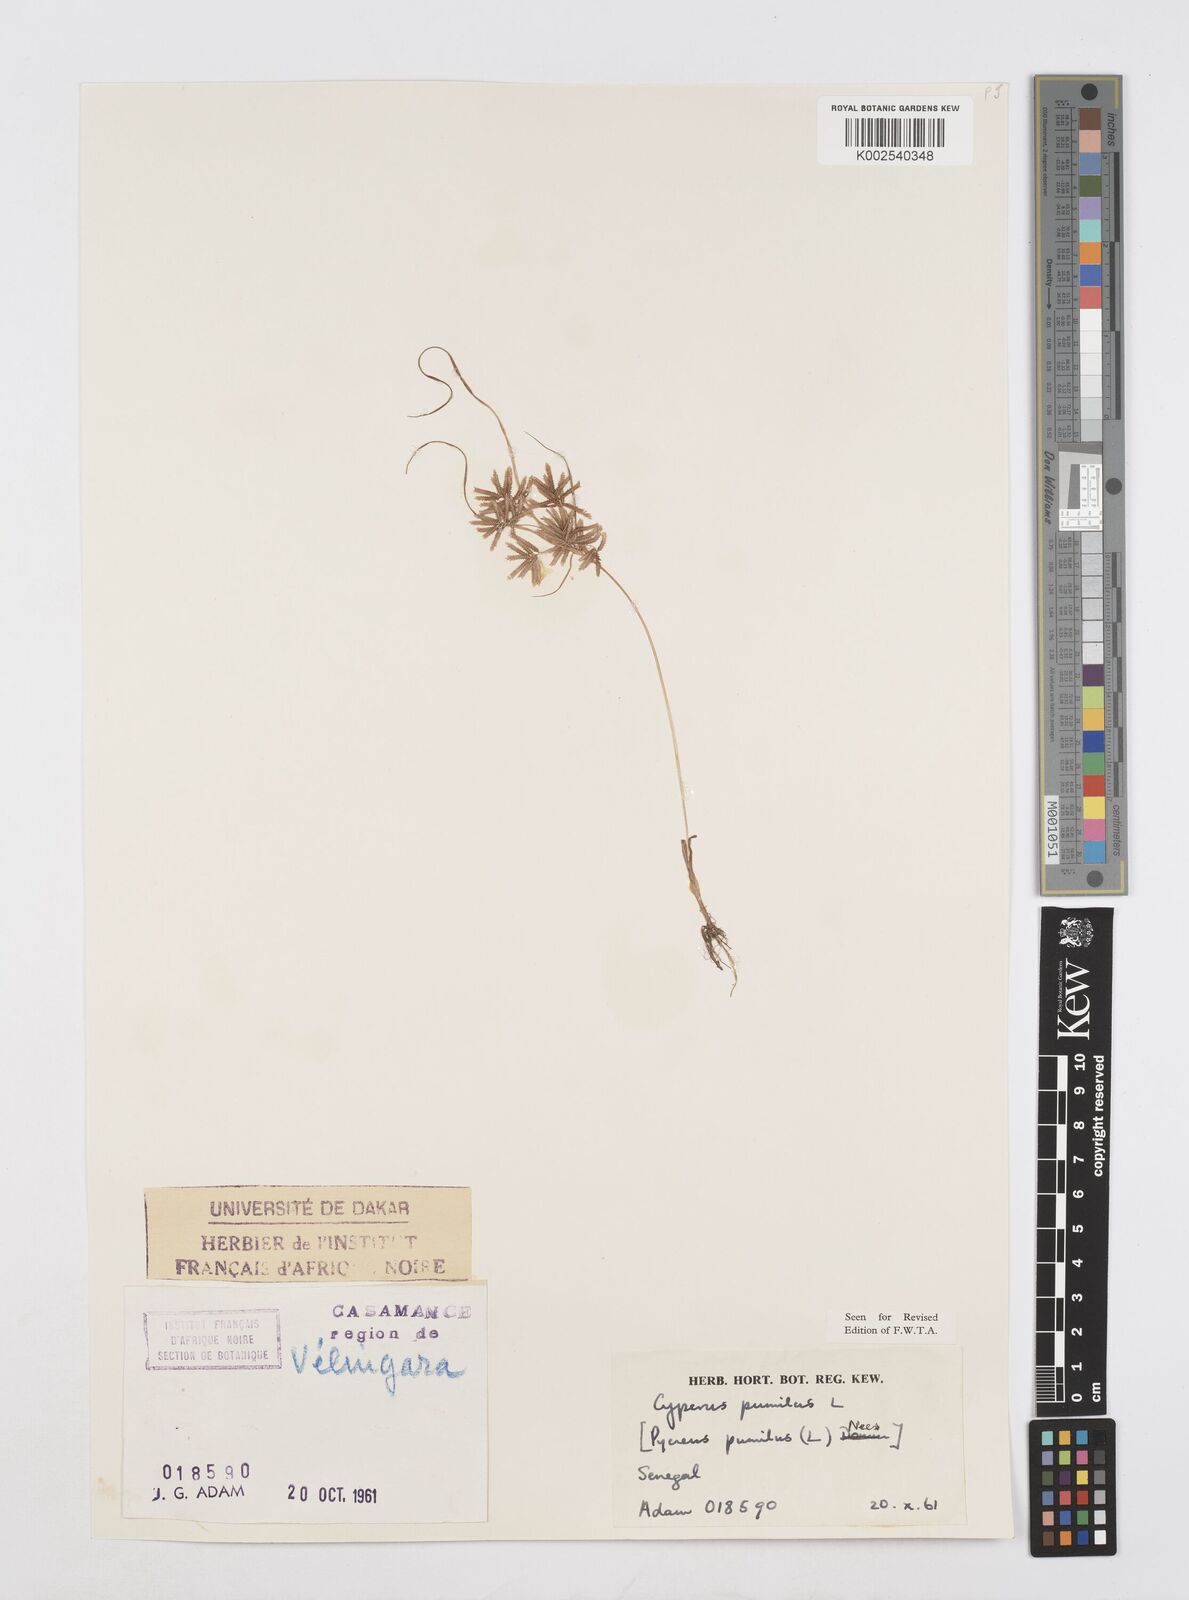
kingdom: Plantae
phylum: Tracheophyta
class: Liliopsida
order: Poales
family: Cyperaceae
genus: Cyperus
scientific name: Cyperus pumilus
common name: Low flatsedge
